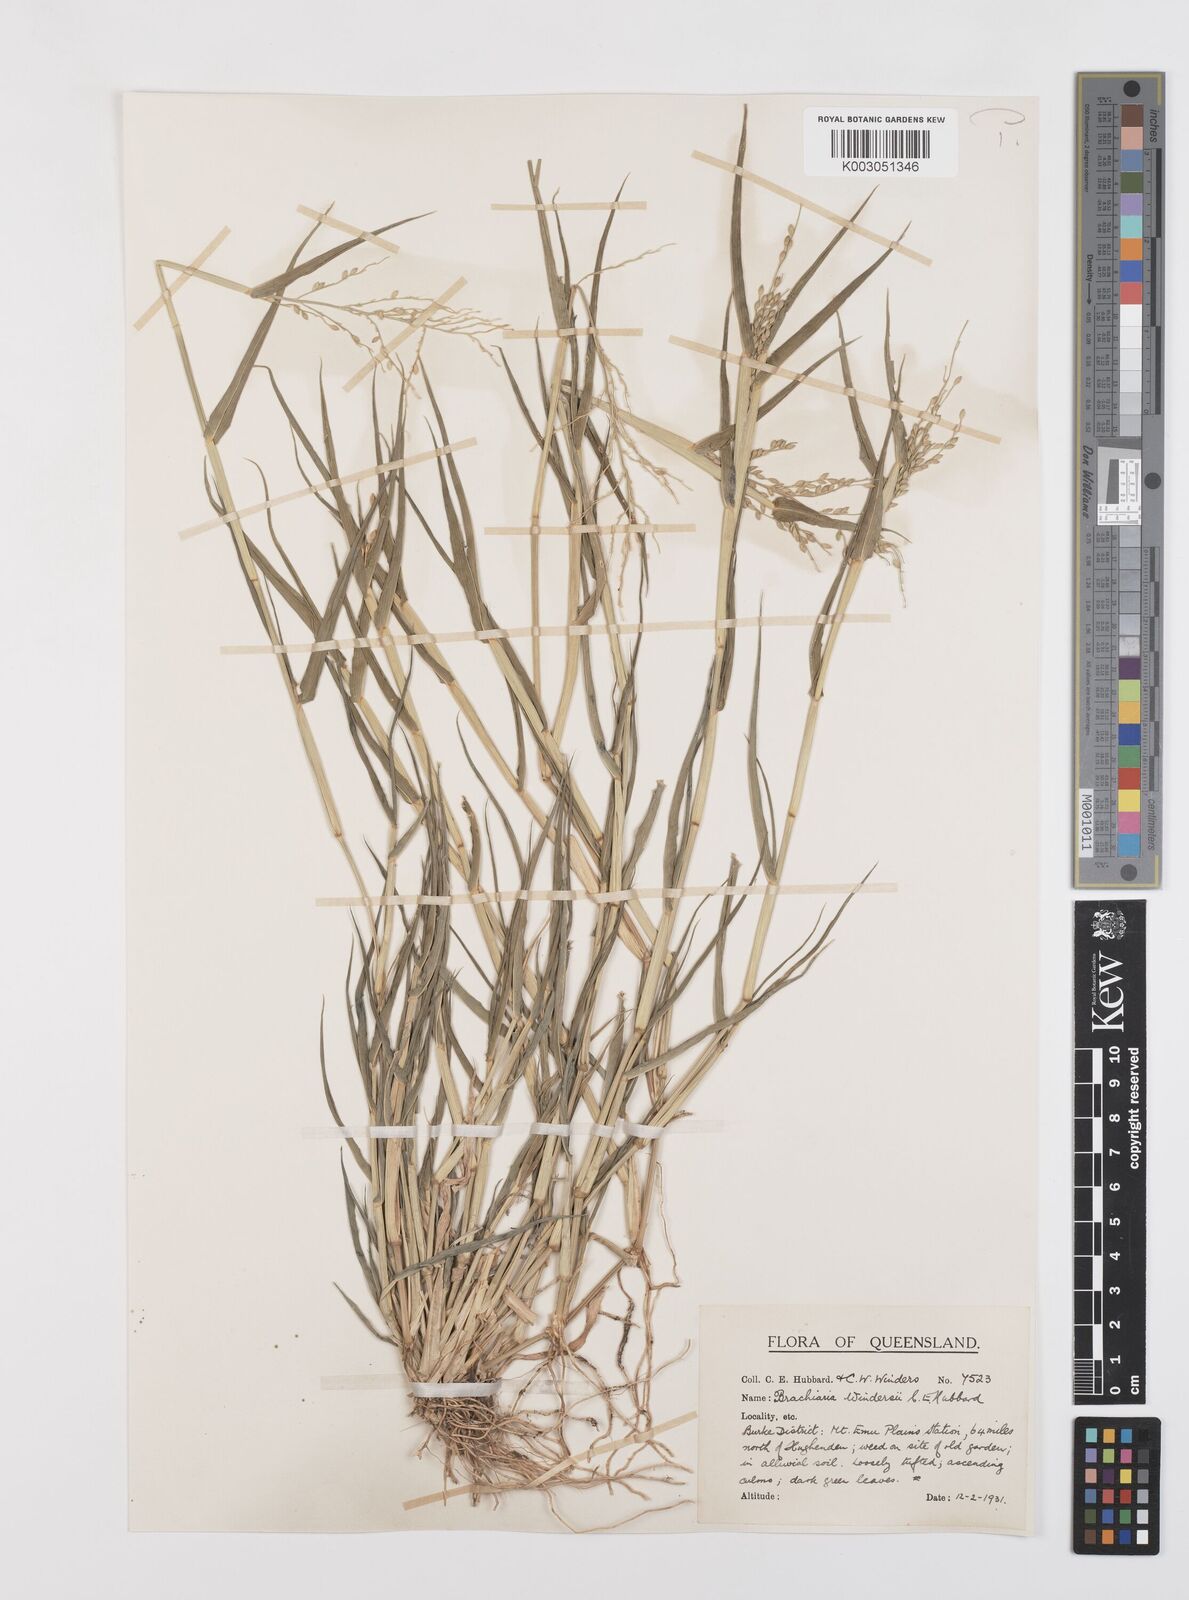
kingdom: Plantae
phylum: Tracheophyta
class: Liliopsida
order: Poales
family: Poaceae
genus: Urochloa
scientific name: Urochloa whiteana
